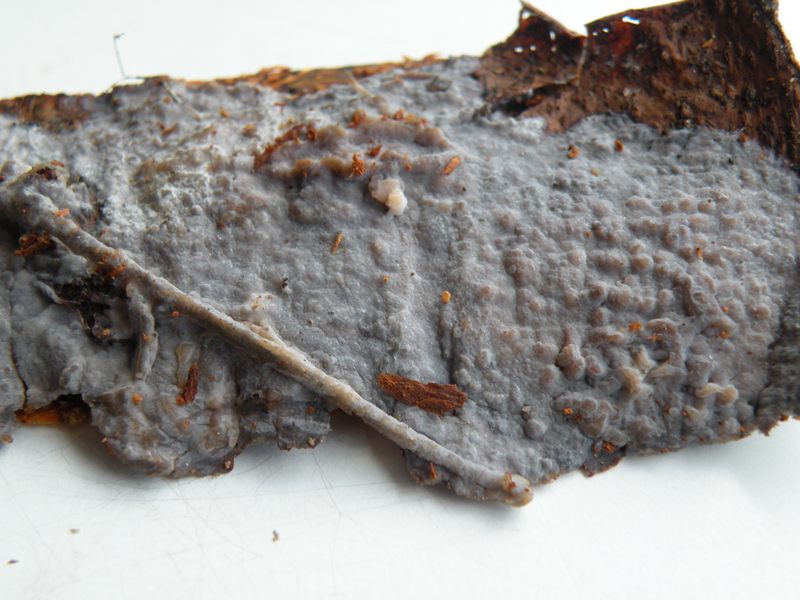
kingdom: Fungi
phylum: Basidiomycota
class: Agaricomycetes
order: Sebacinales
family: Sebacinaceae
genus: Sebacina
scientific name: Sebacina grisea
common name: blågrå bævrehinde
